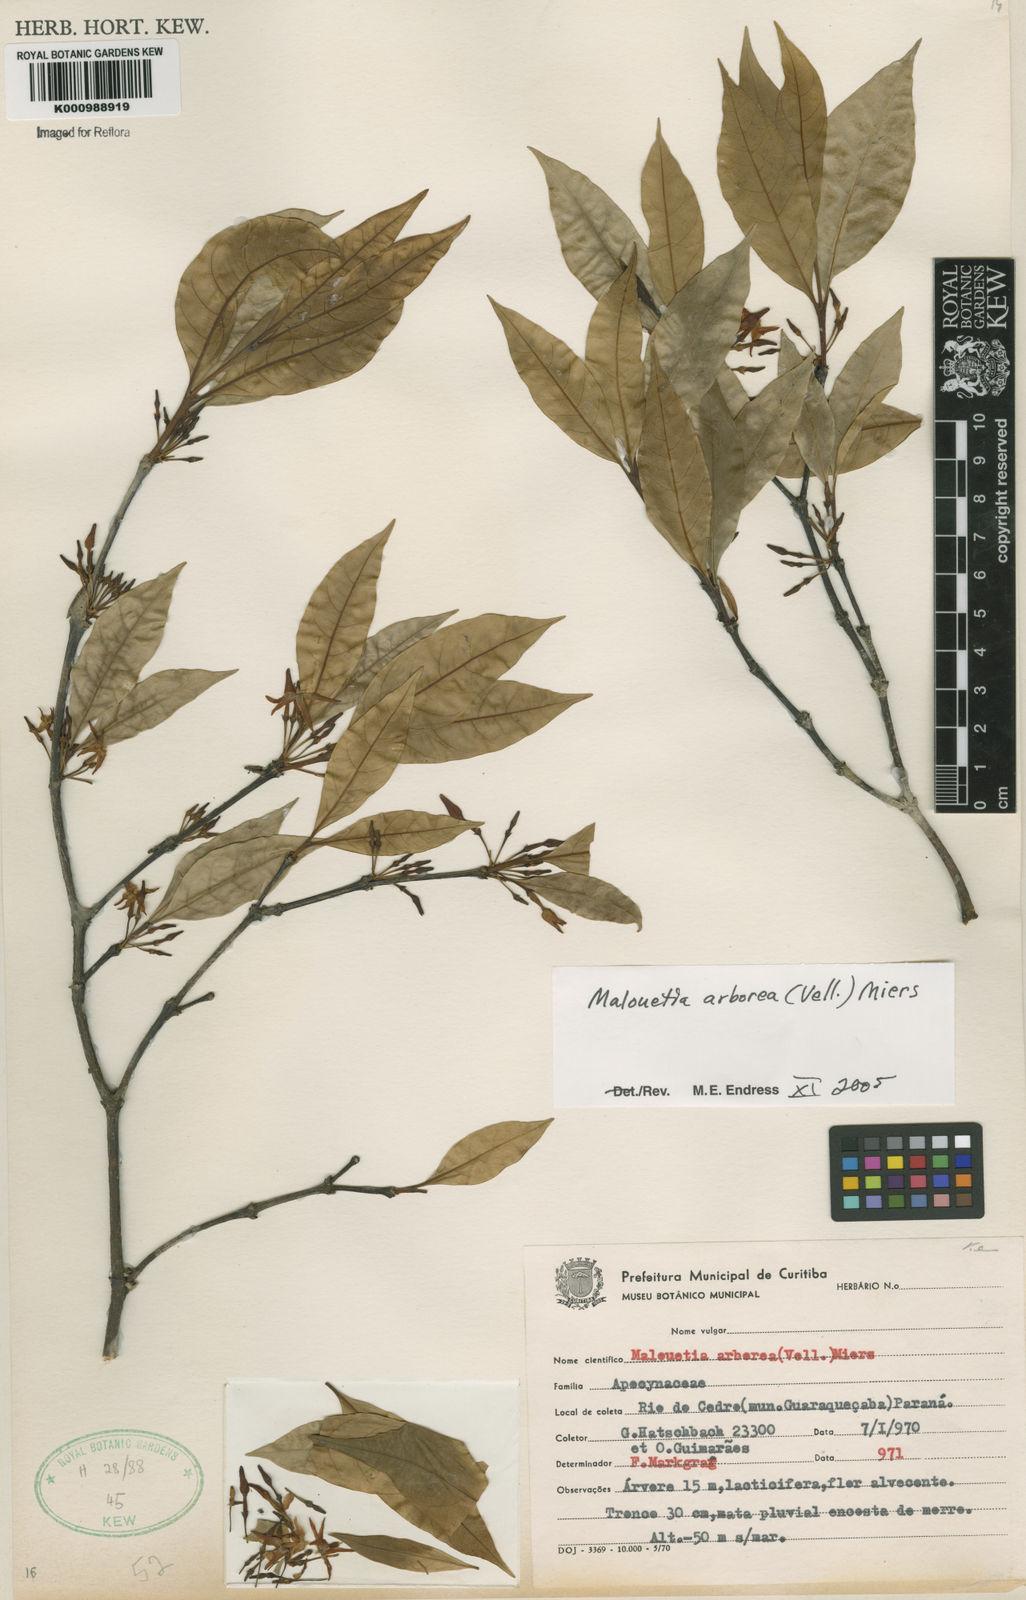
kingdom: Plantae
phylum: Tracheophyta
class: Magnoliopsida
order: Gentianales
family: Apocynaceae
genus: Malouetia
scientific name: Malouetia cestroides
